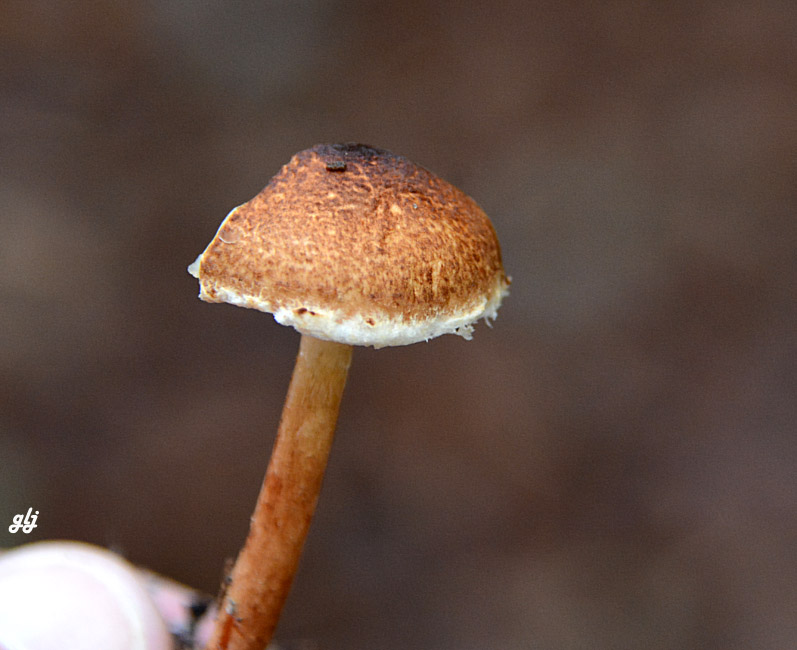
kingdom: Fungi
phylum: Basidiomycota
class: Agaricomycetes
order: Agaricales
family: Agaricaceae
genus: Lepiota
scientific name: Lepiota castanea
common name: kastaniebrun parasolhat
